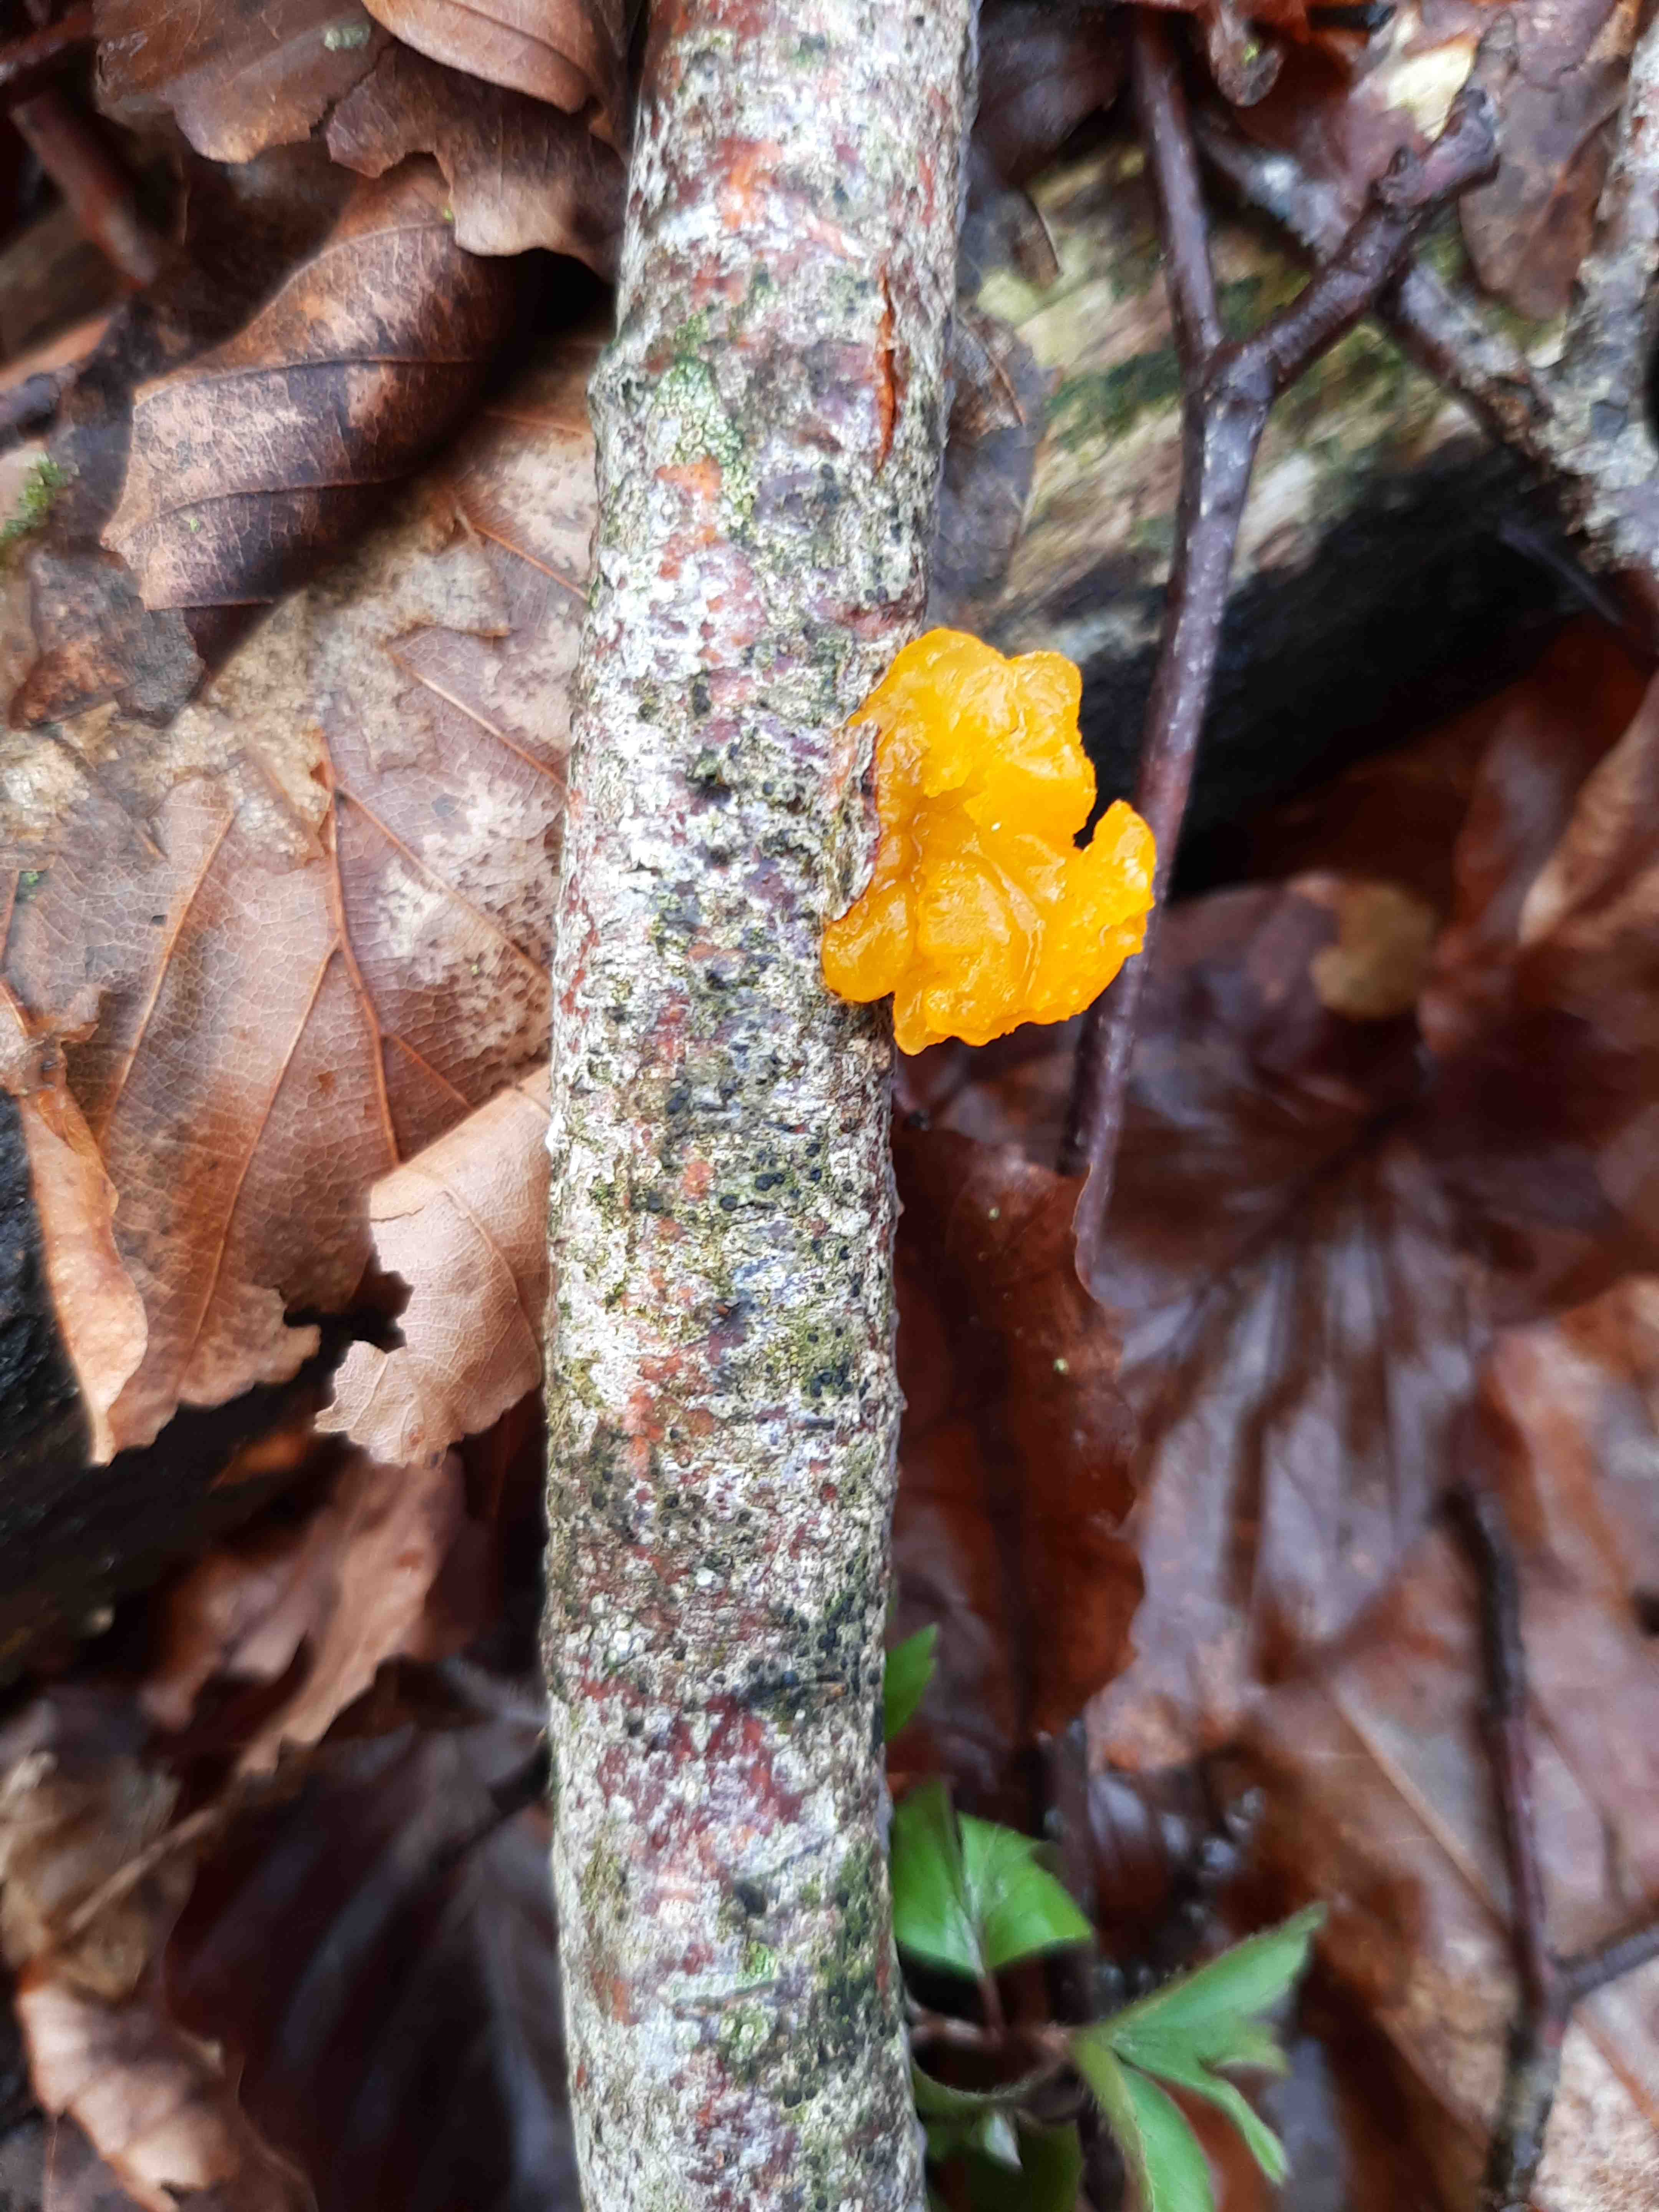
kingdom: Fungi
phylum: Basidiomycota
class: Tremellomycetes
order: Tremellales
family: Tremellaceae
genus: Tremella
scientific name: Tremella mesenterica
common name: gul bævresvamp
